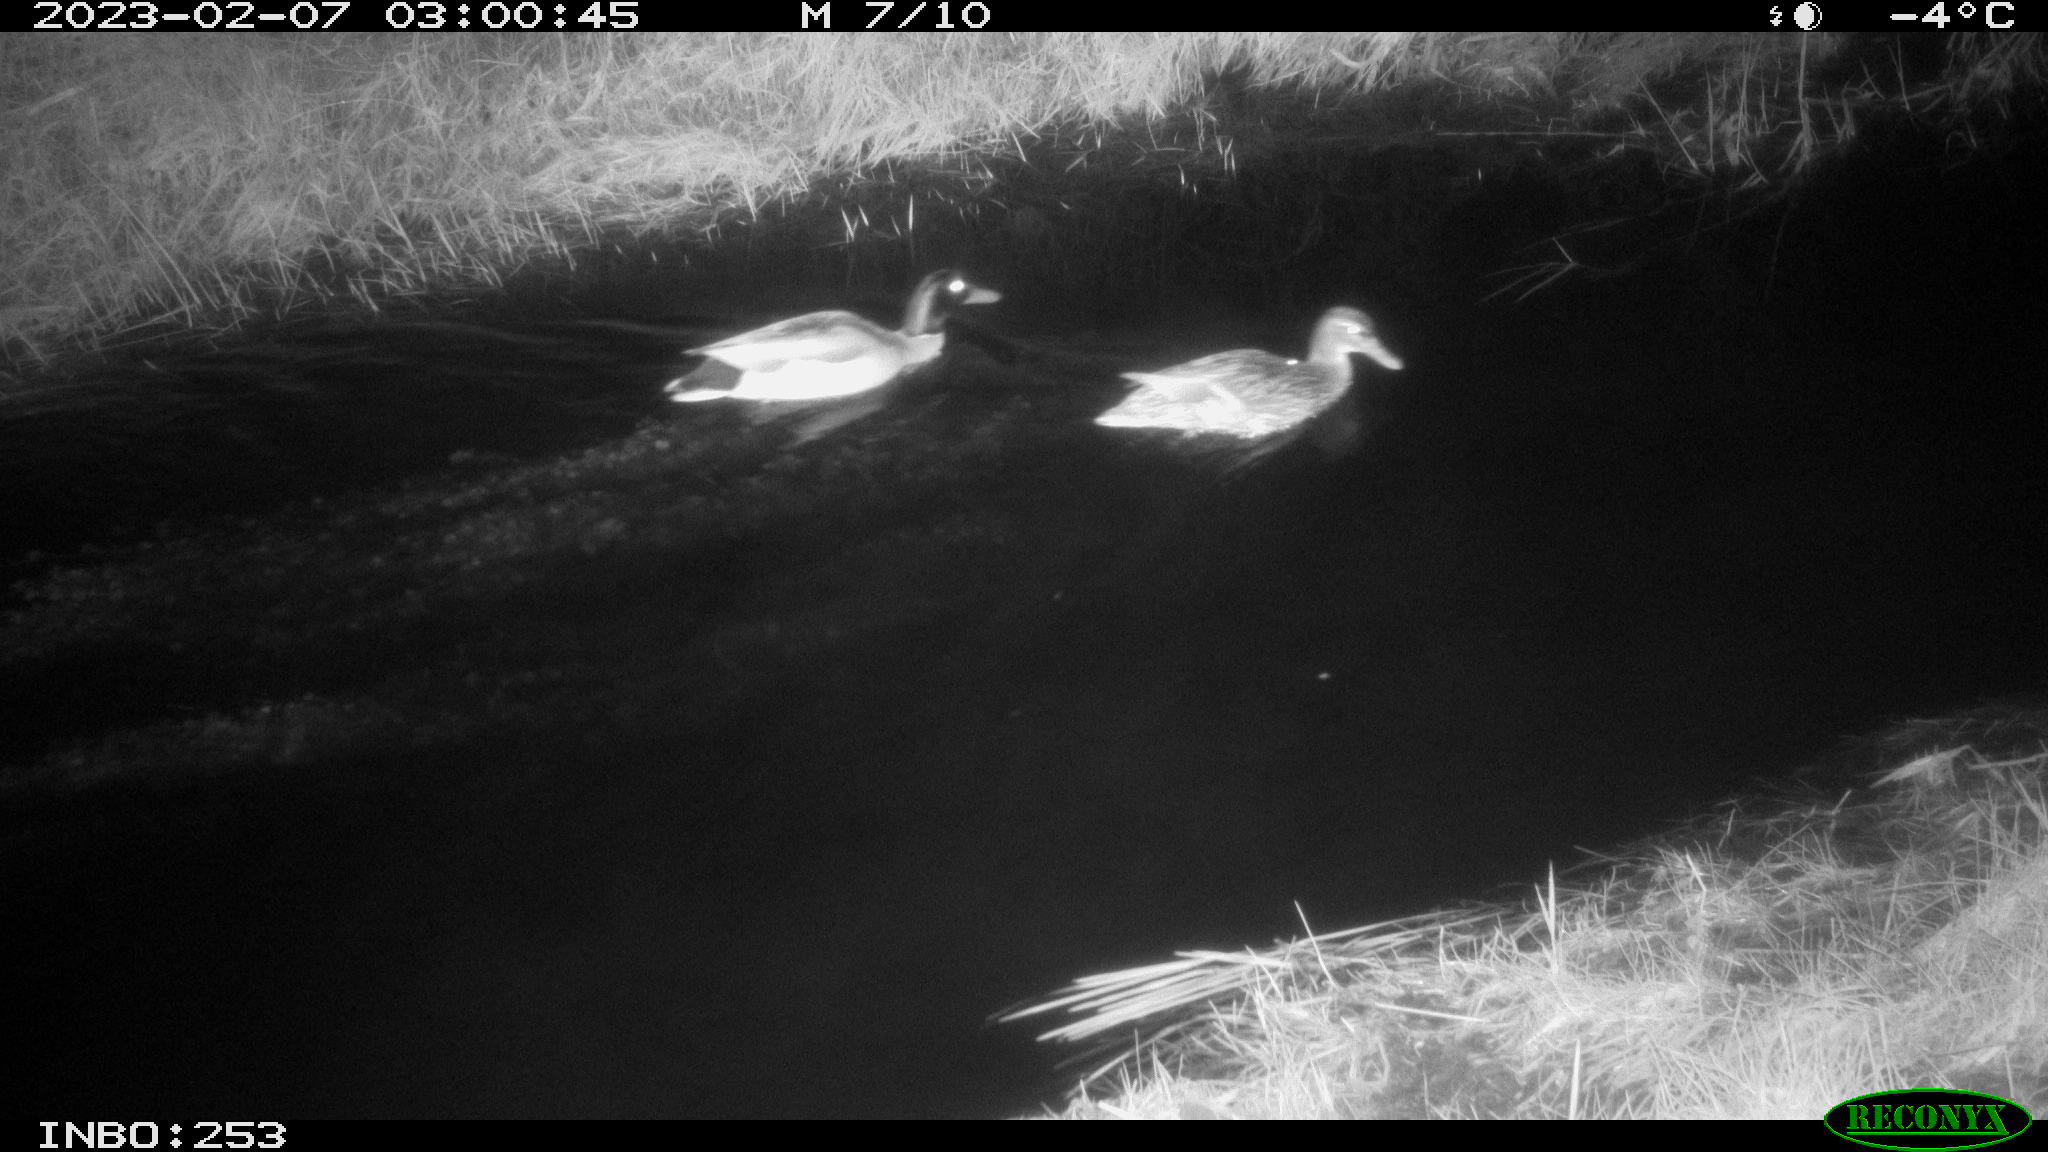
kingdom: Animalia
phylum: Chordata
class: Aves
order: Anseriformes
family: Anatidae
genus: Anas
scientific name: Anas
